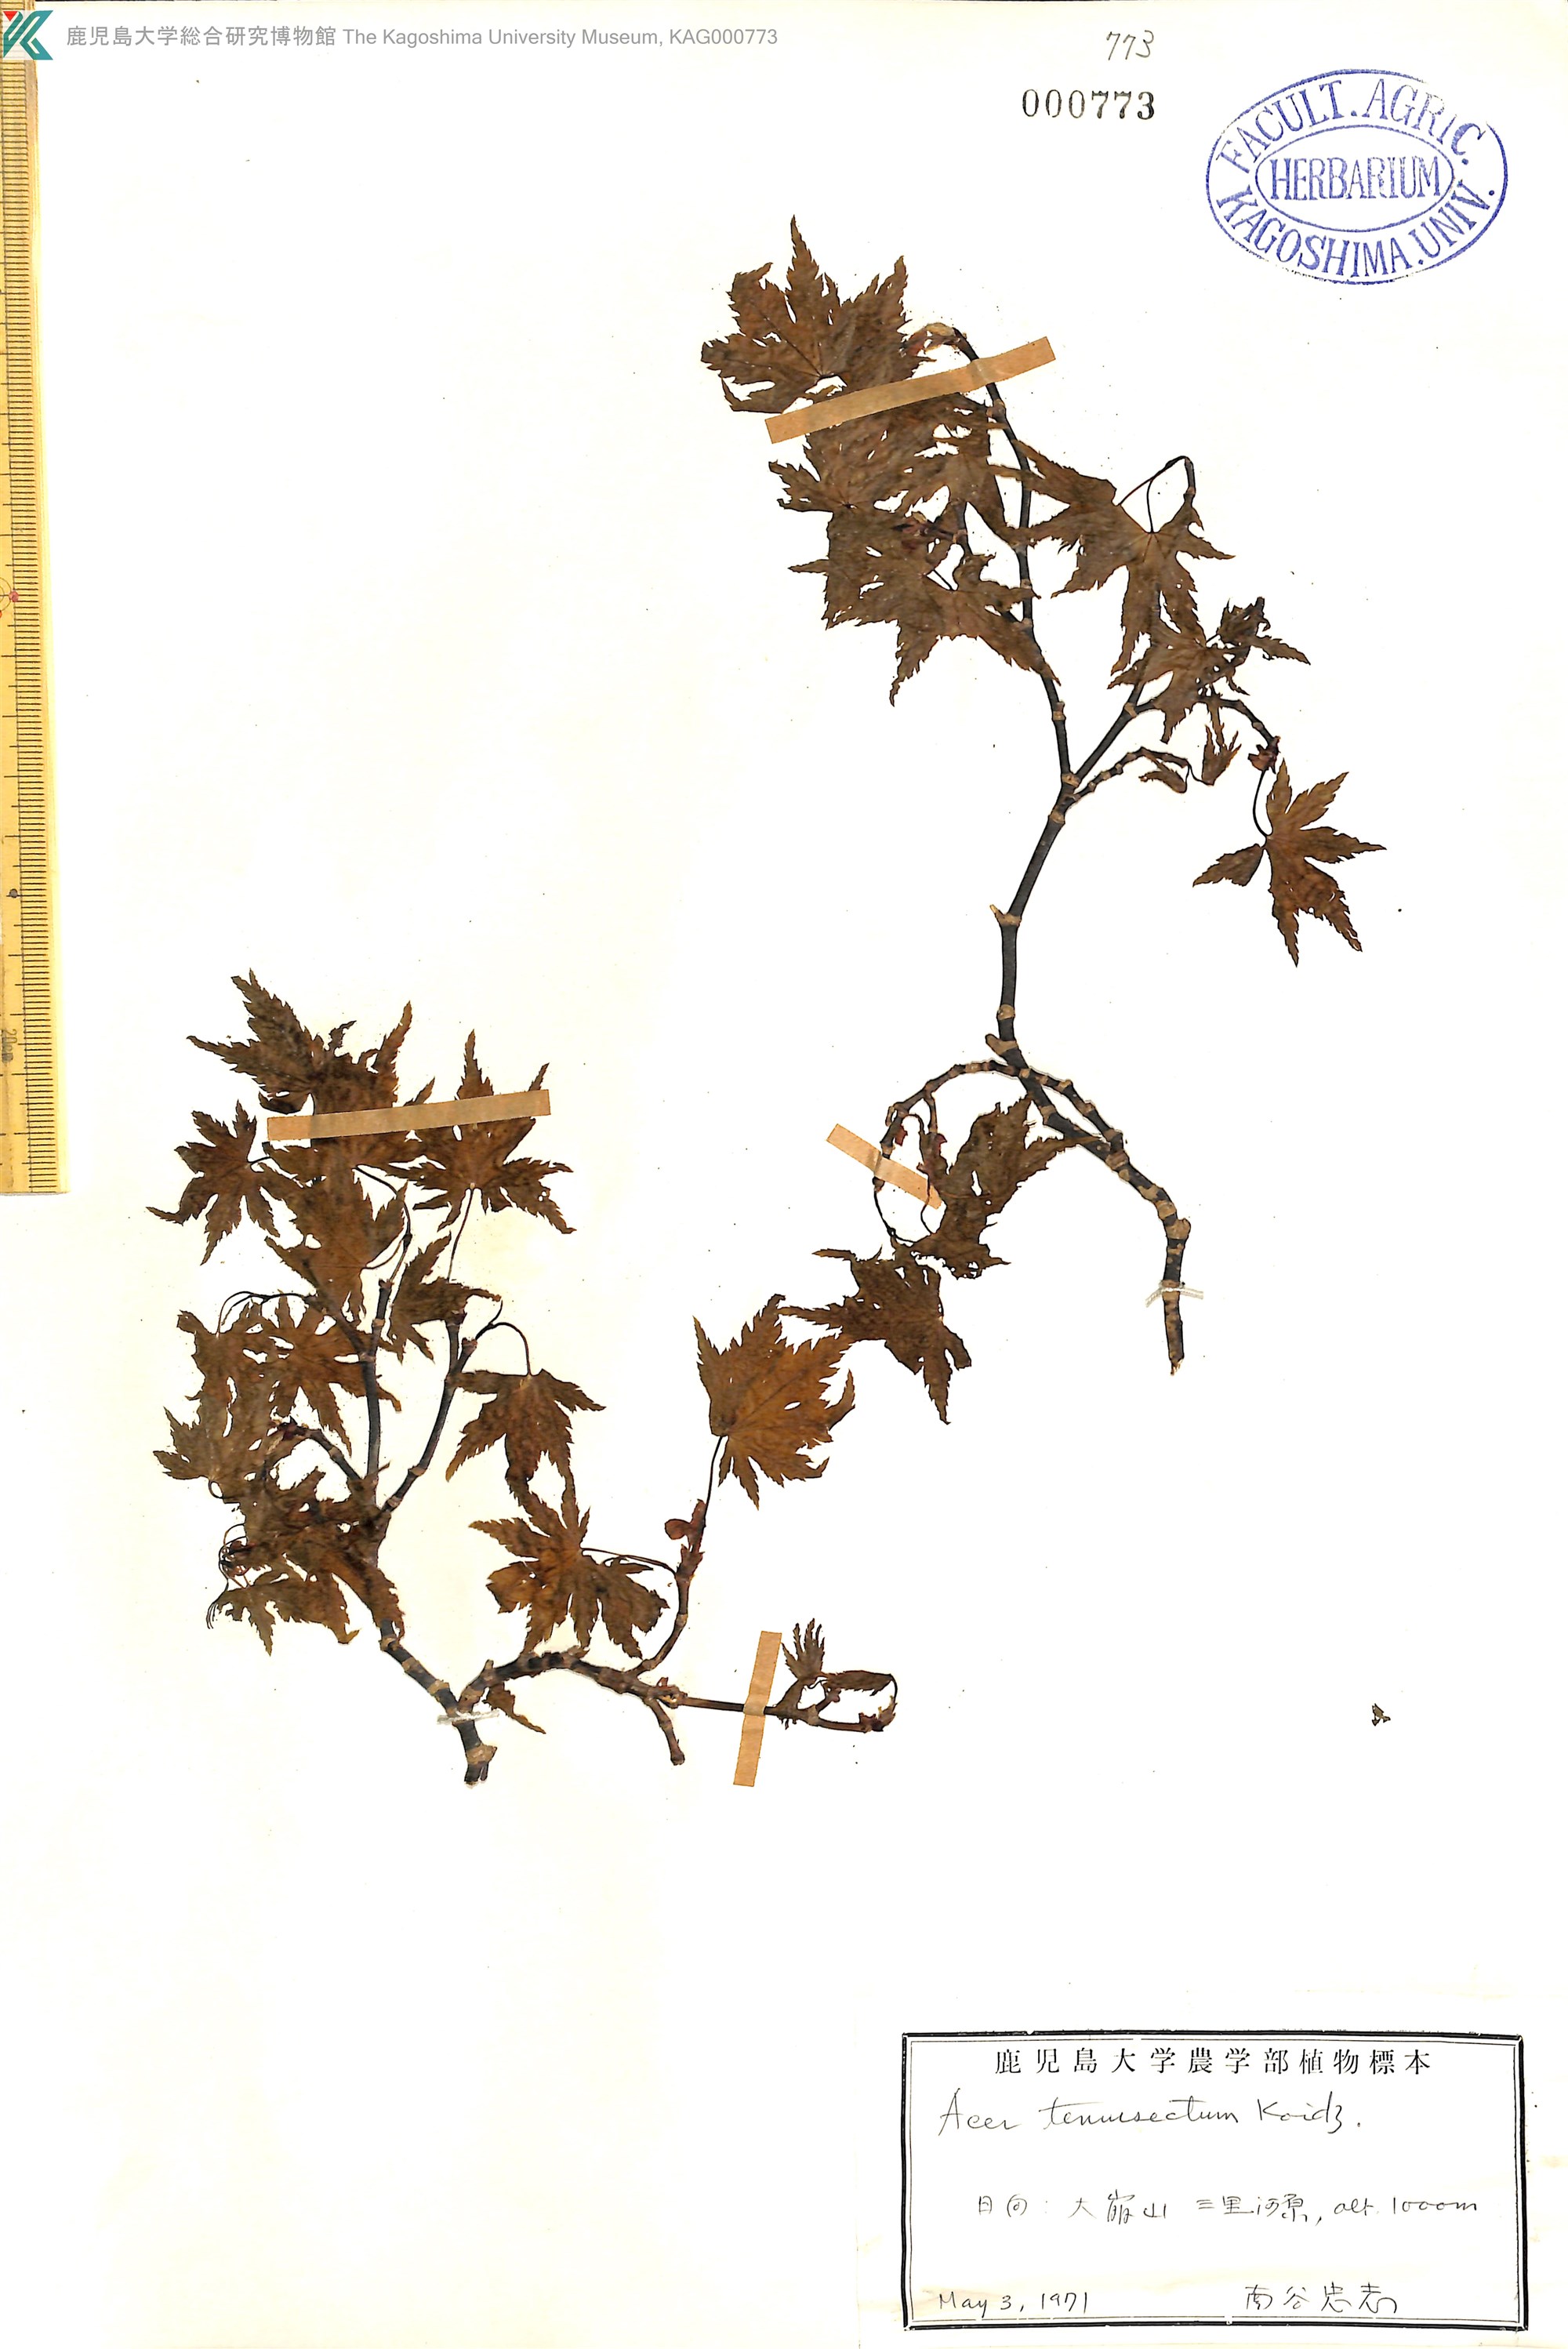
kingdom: Plantae
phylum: Tracheophyta
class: Magnoliopsida
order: Sapindales
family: Sapindaceae
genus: Acer
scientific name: Acer shirasawanum
